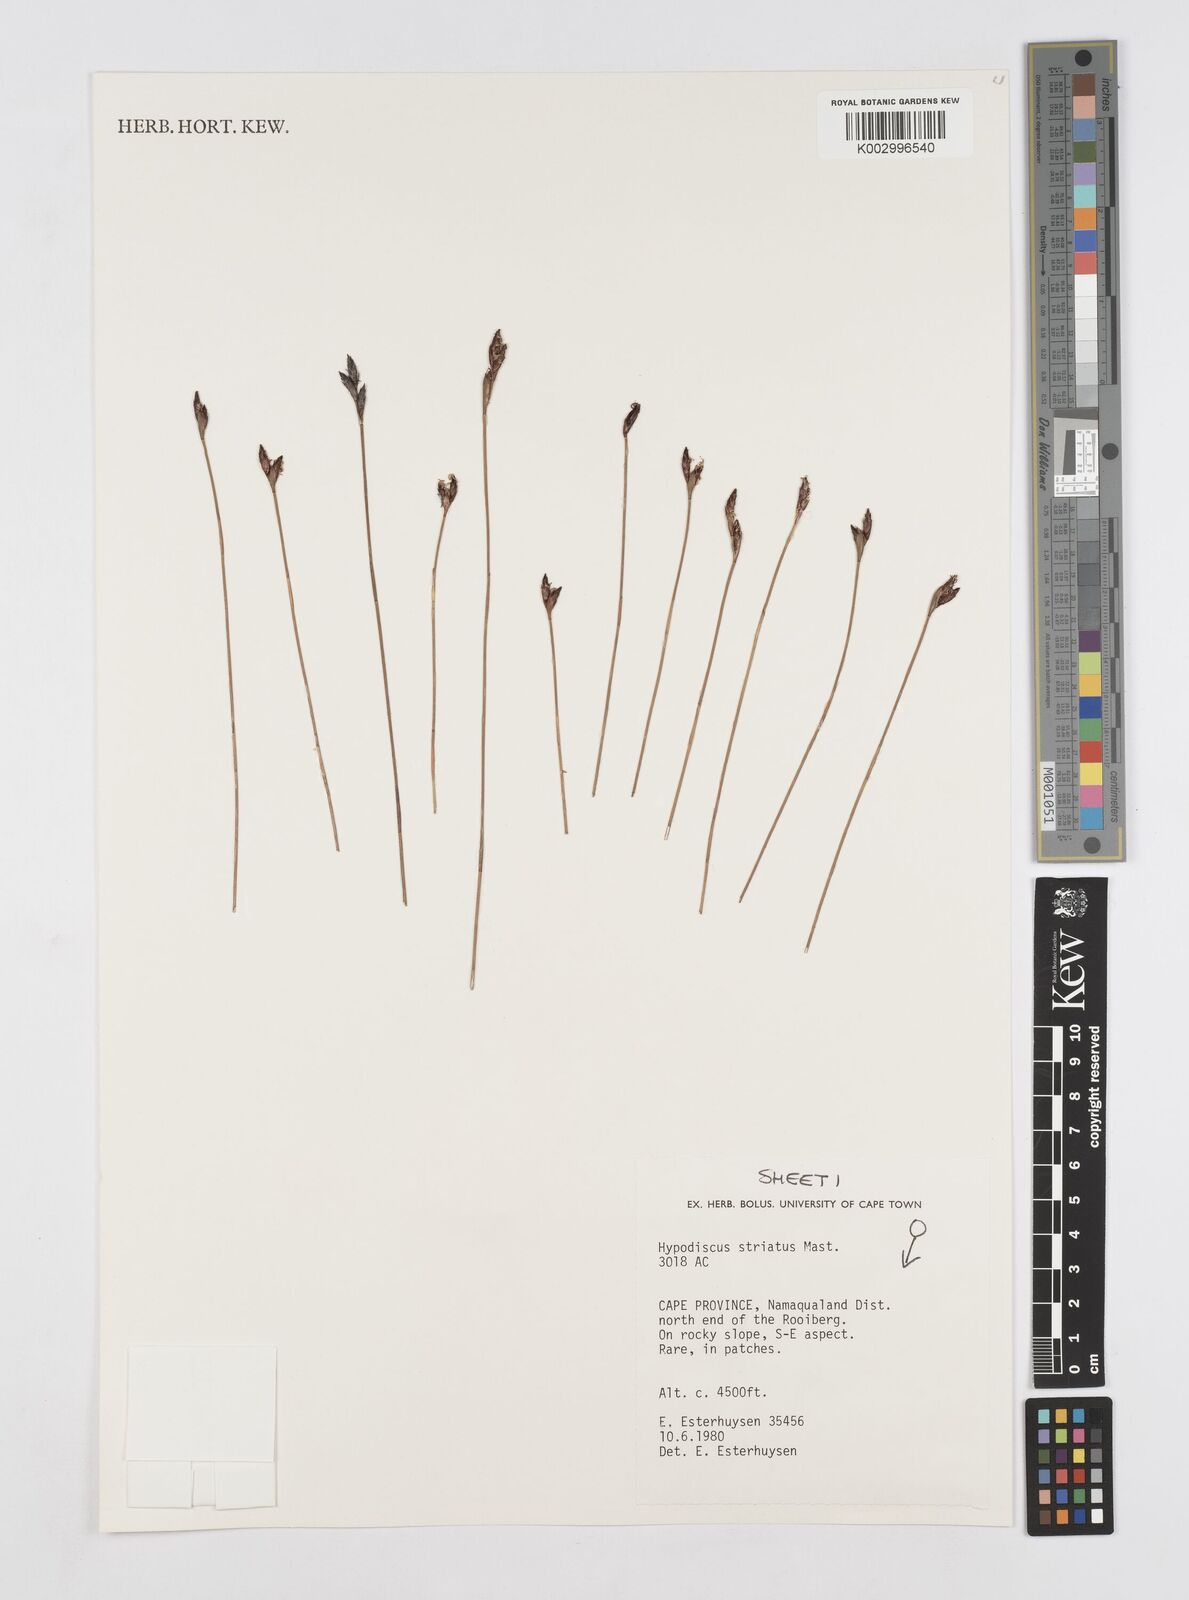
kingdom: Plantae
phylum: Tracheophyta
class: Liliopsida
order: Poales
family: Restionaceae
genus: Hypodiscus
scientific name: Hypodiscus striatus
